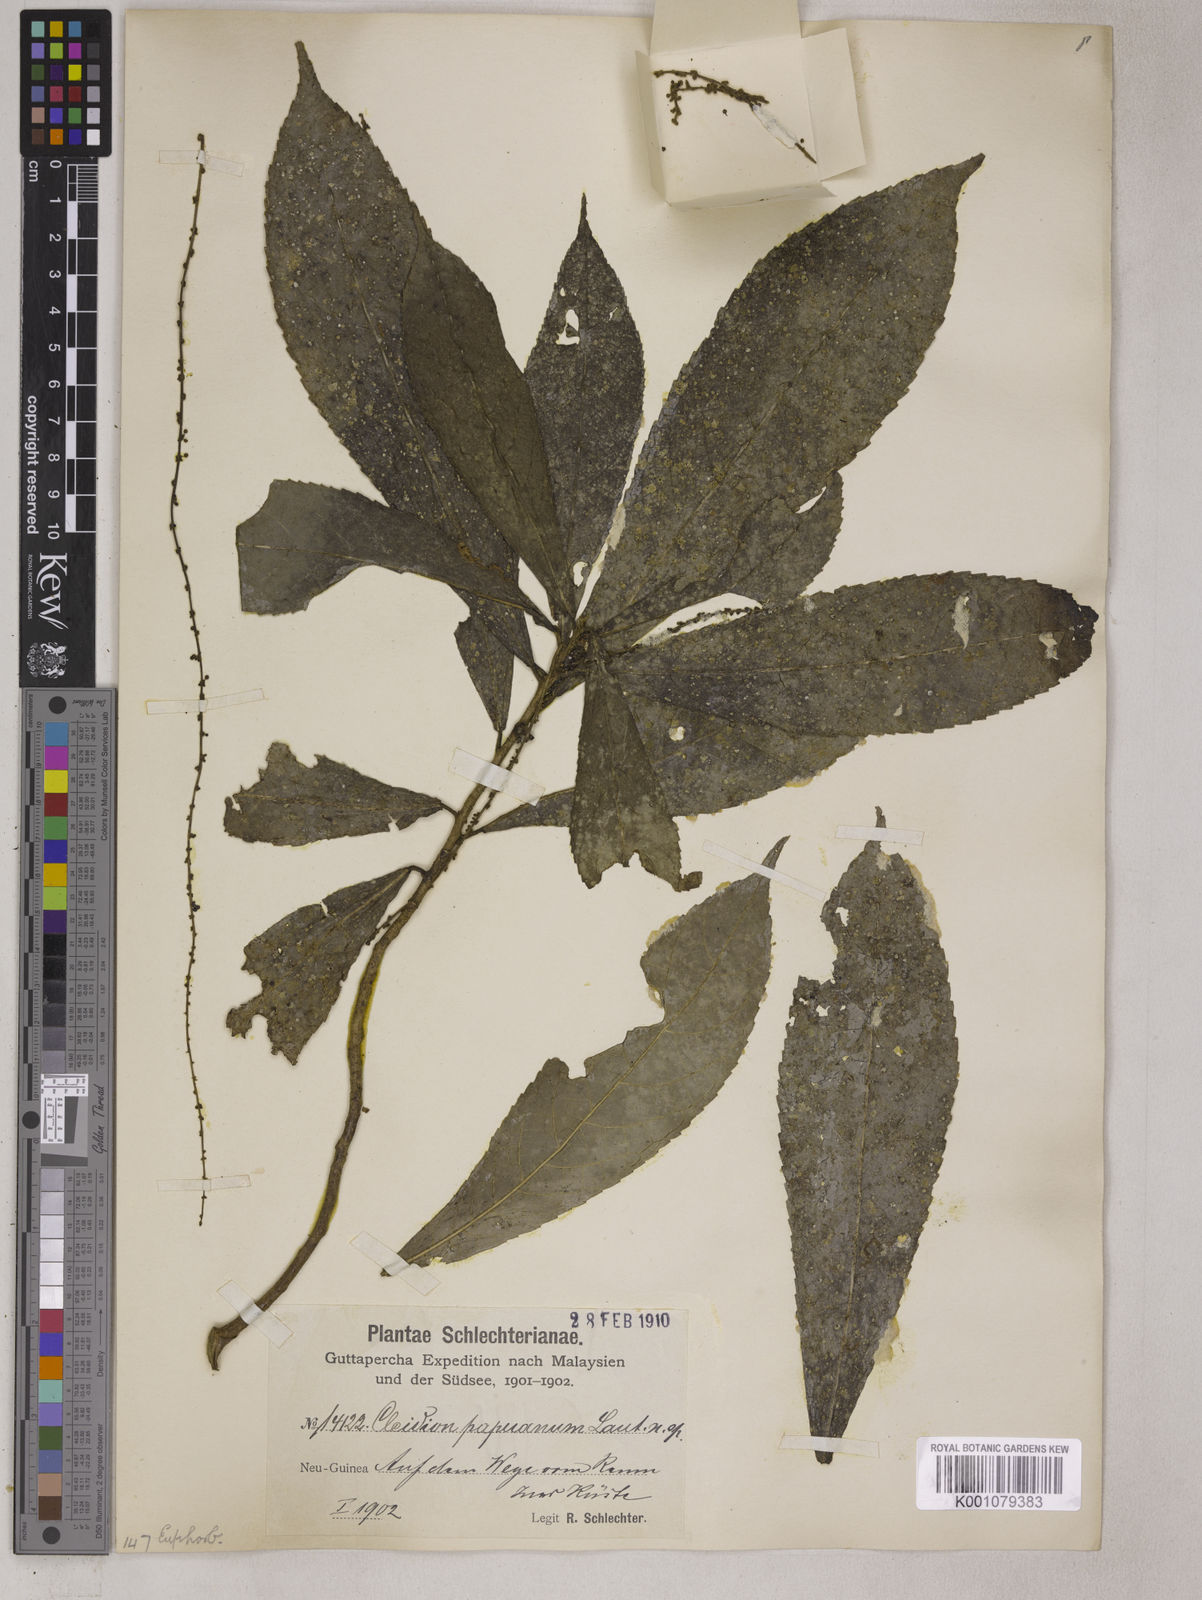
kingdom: Plantae
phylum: Tracheophyta
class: Magnoliopsida
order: Malpighiales
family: Euphorbiaceae
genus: Cleidion
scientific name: Cleidion papuanum
